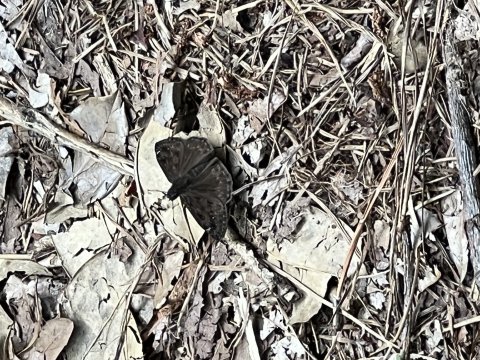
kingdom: Animalia
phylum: Arthropoda
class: Insecta
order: Lepidoptera
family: Hesperiidae
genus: Gesta
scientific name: Gesta
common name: Horace's Duskywing
